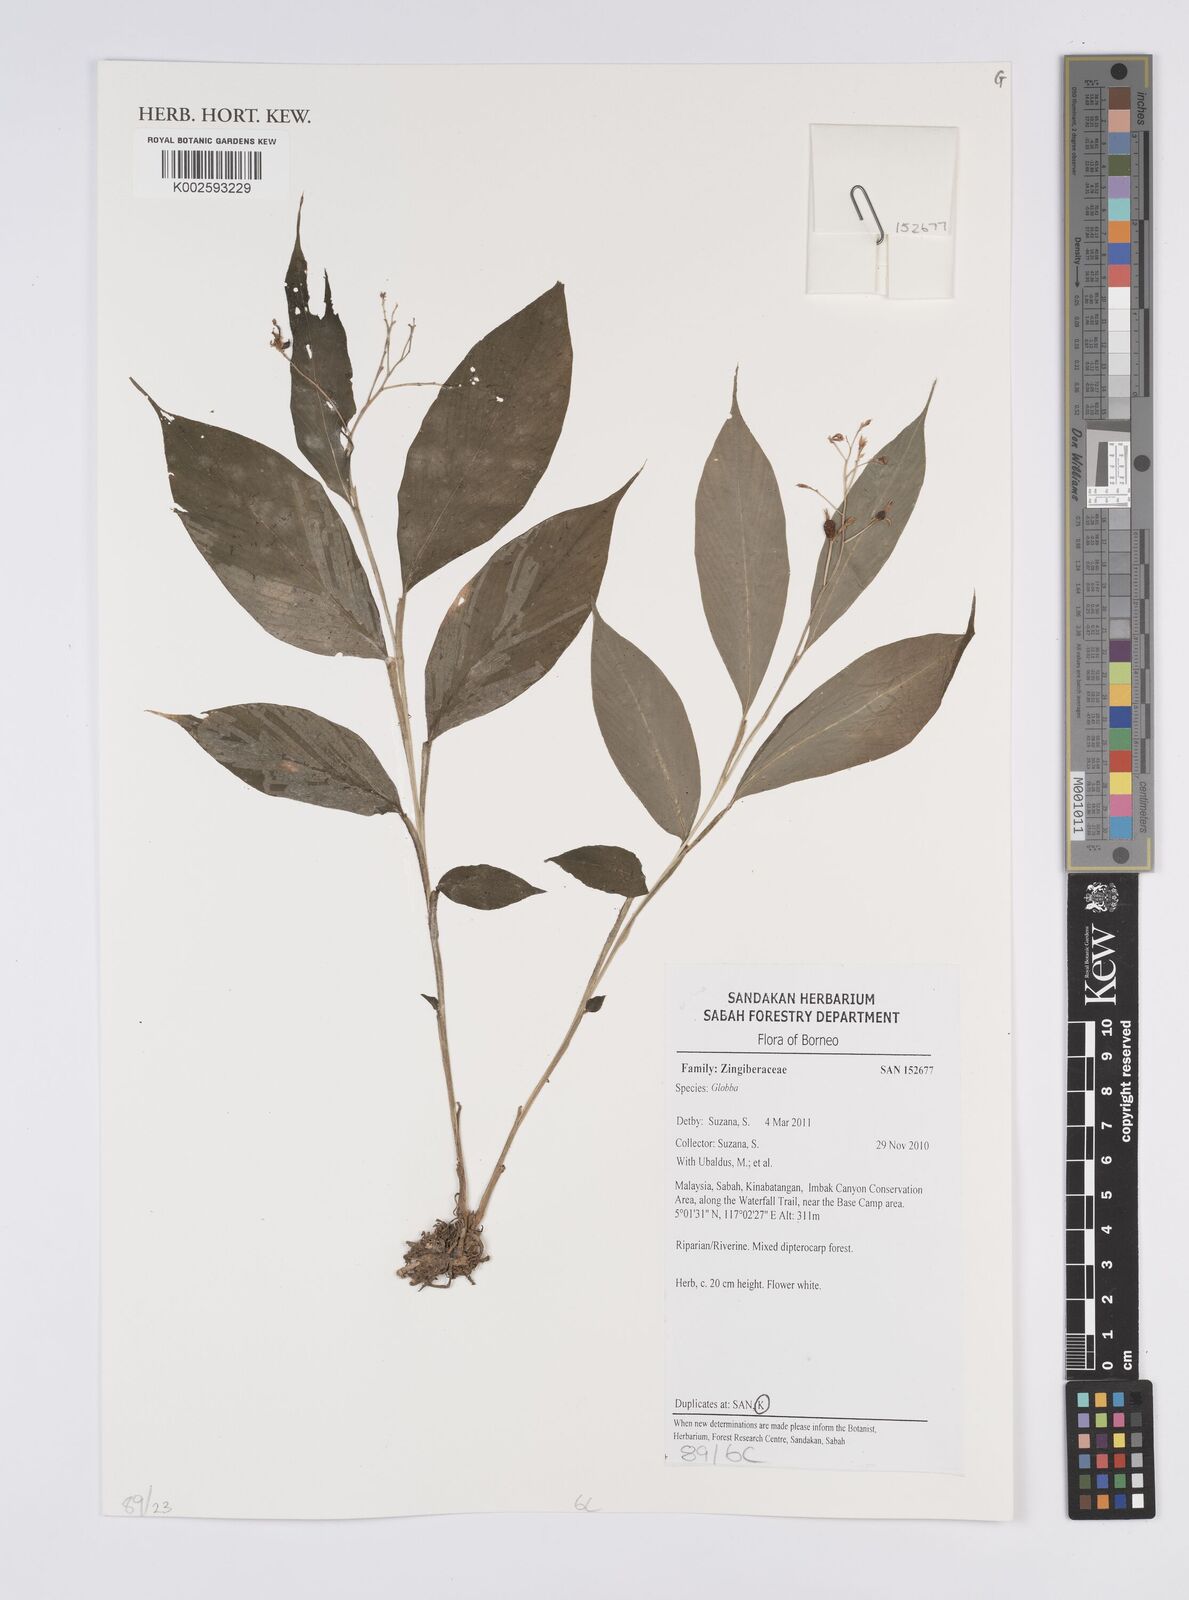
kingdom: Plantae
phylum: Tracheophyta
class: Liliopsida
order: Zingiberales
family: Zingiberaceae
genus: Globba
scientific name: Globba
